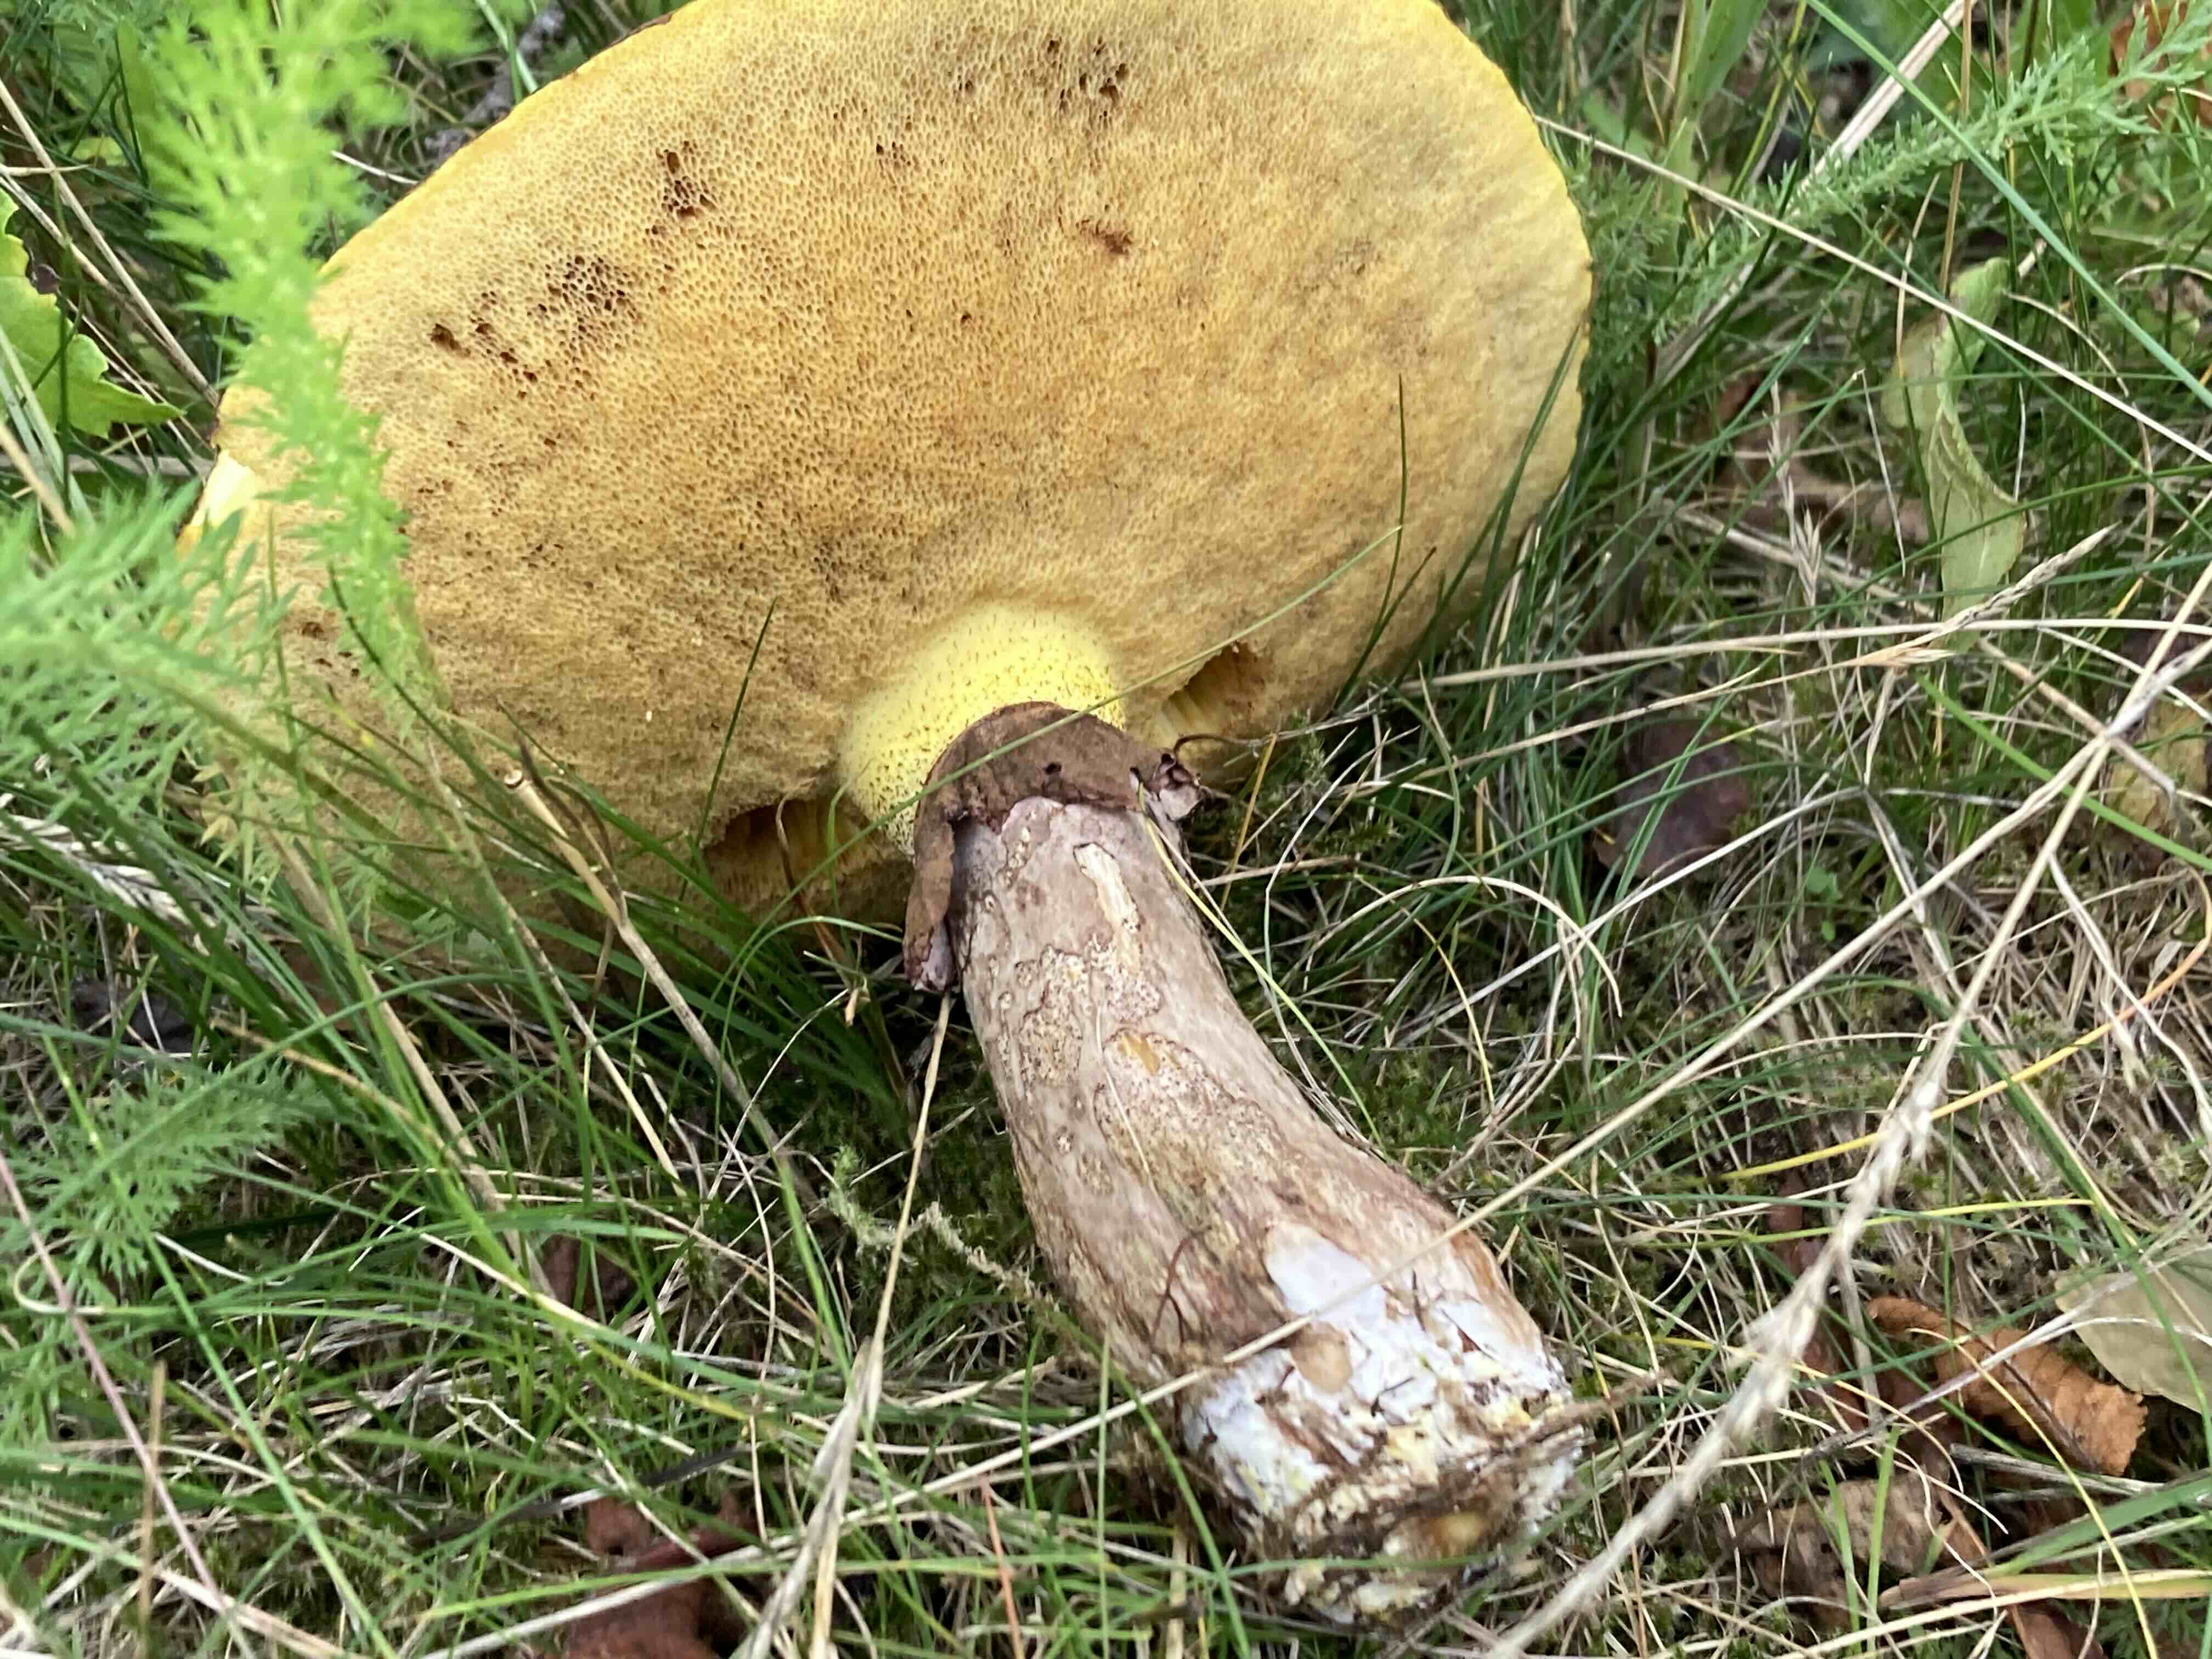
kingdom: Fungi
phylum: Basidiomycota
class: Agaricomycetes
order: Boletales
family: Suillaceae
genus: Suillus
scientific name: Suillus luteus
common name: brungul slimrørhat
